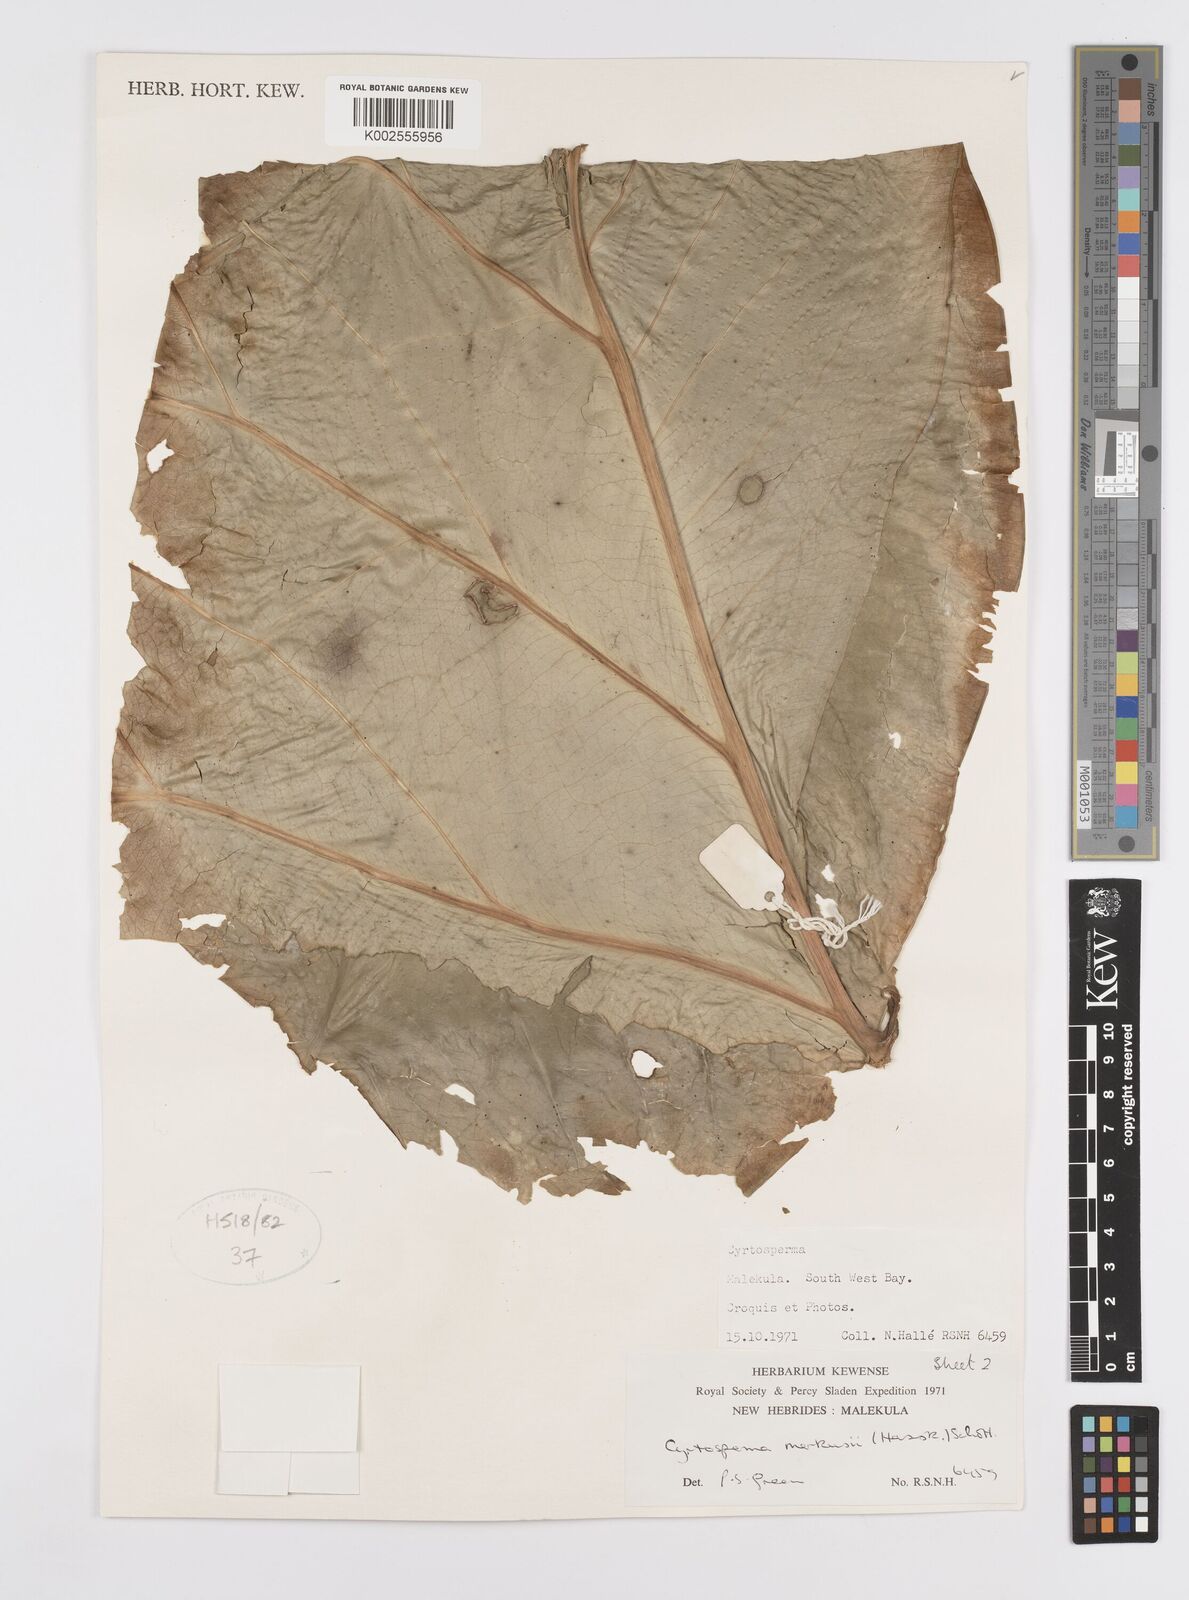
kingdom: Plantae
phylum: Tracheophyta
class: Liliopsida
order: Alismatales
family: Araceae
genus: Cyrtosperma
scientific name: Cyrtosperma merkusii
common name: Giant swamp-taro
